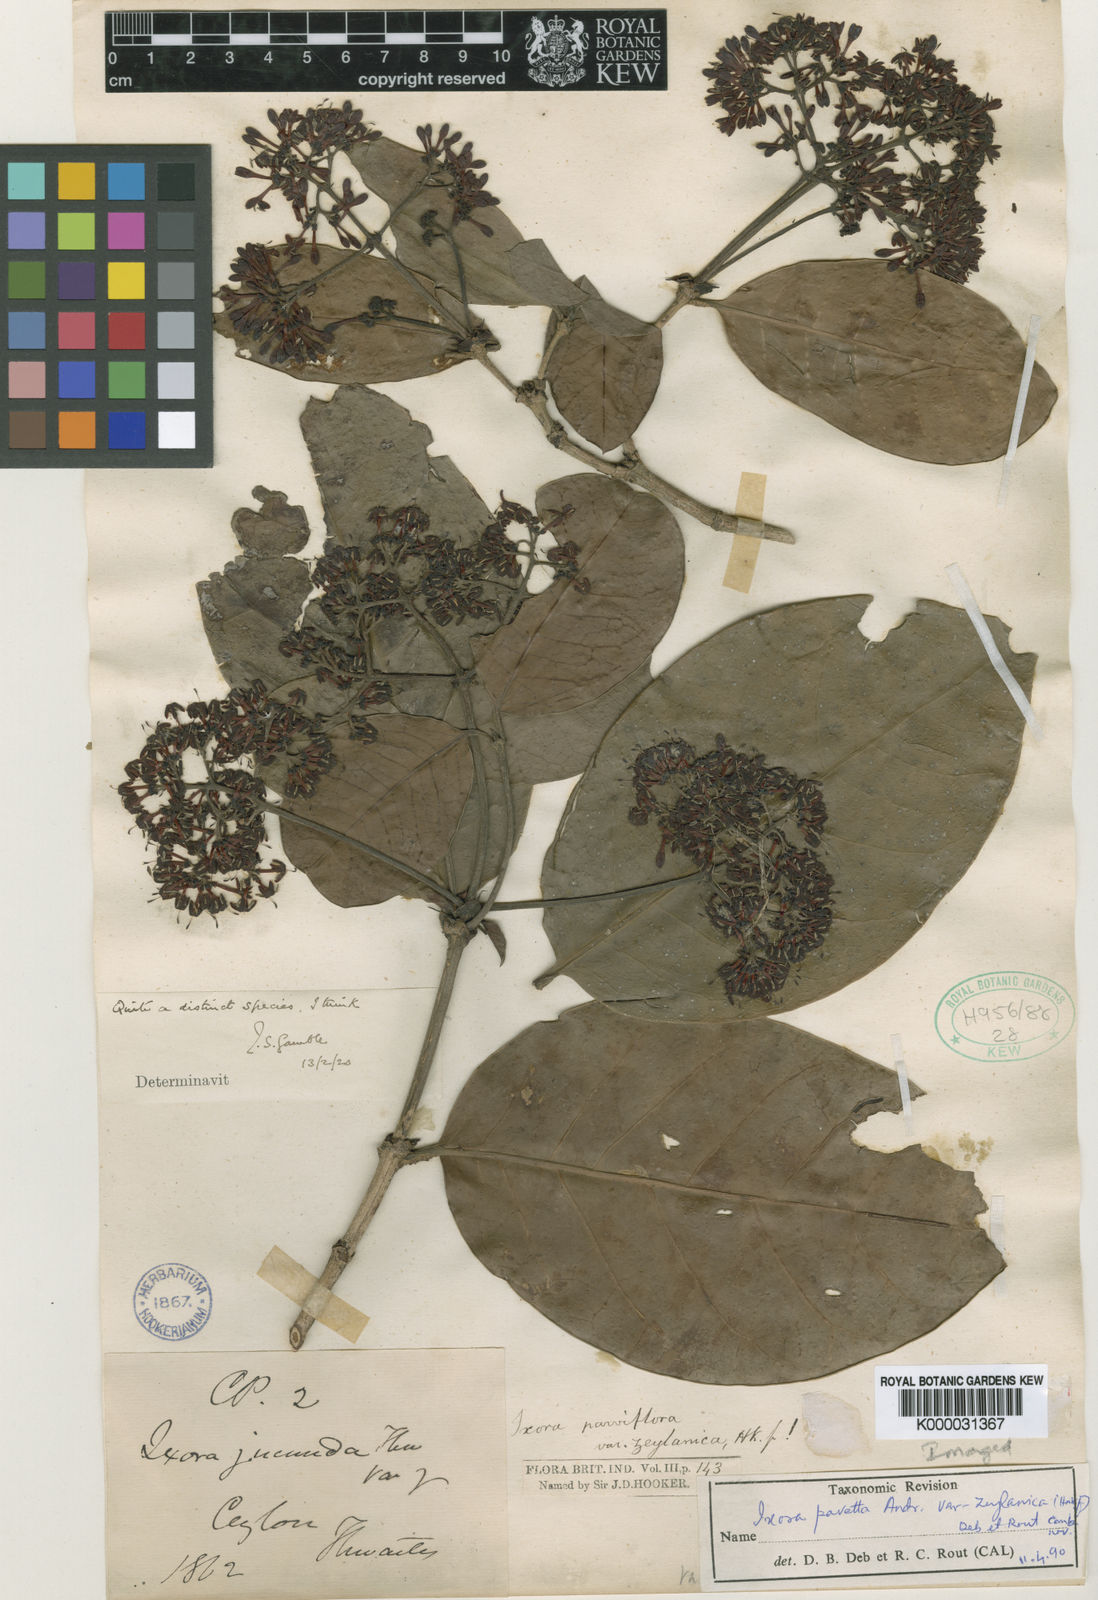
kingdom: Plantae
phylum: Tracheophyta
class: Magnoliopsida
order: Gentianales
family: Rubiaceae
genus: Ixora
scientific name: Ixora pavetta
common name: Torch tree
